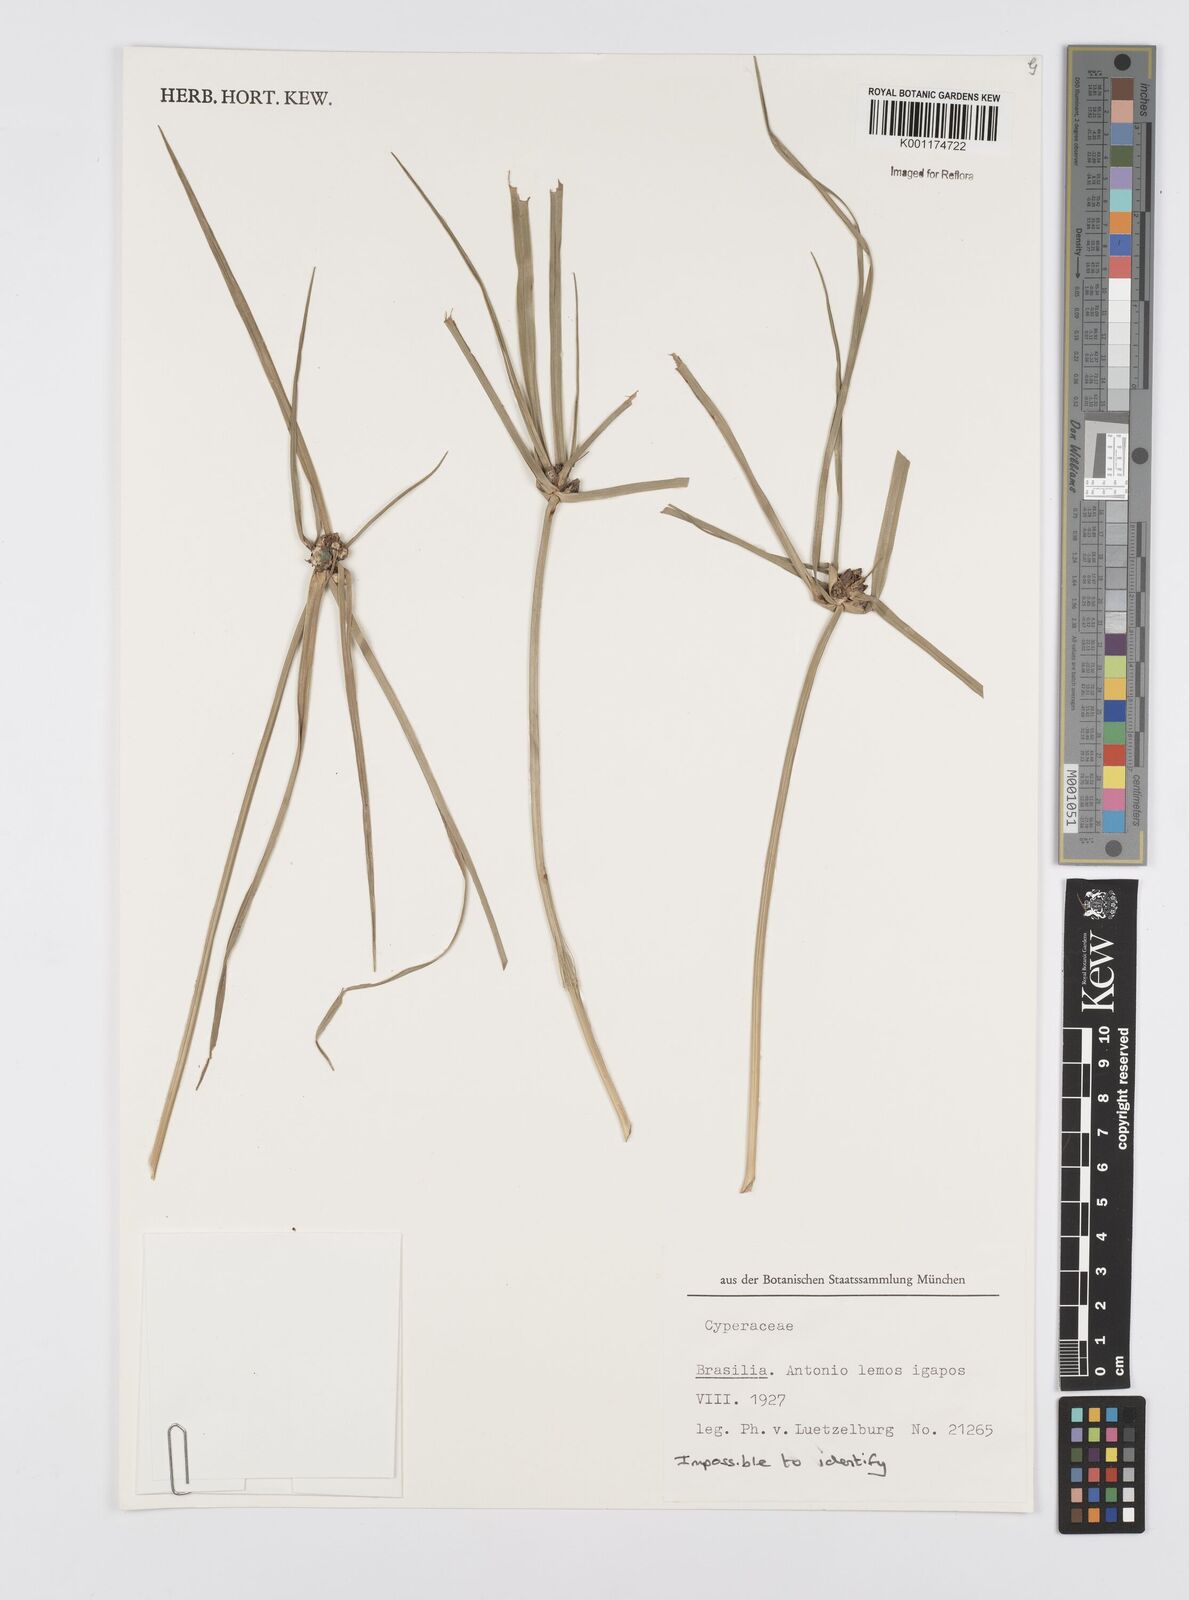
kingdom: Plantae
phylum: Tracheophyta
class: Liliopsida
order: Poales
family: Cyperaceae
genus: Cyperus
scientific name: Cyperus
